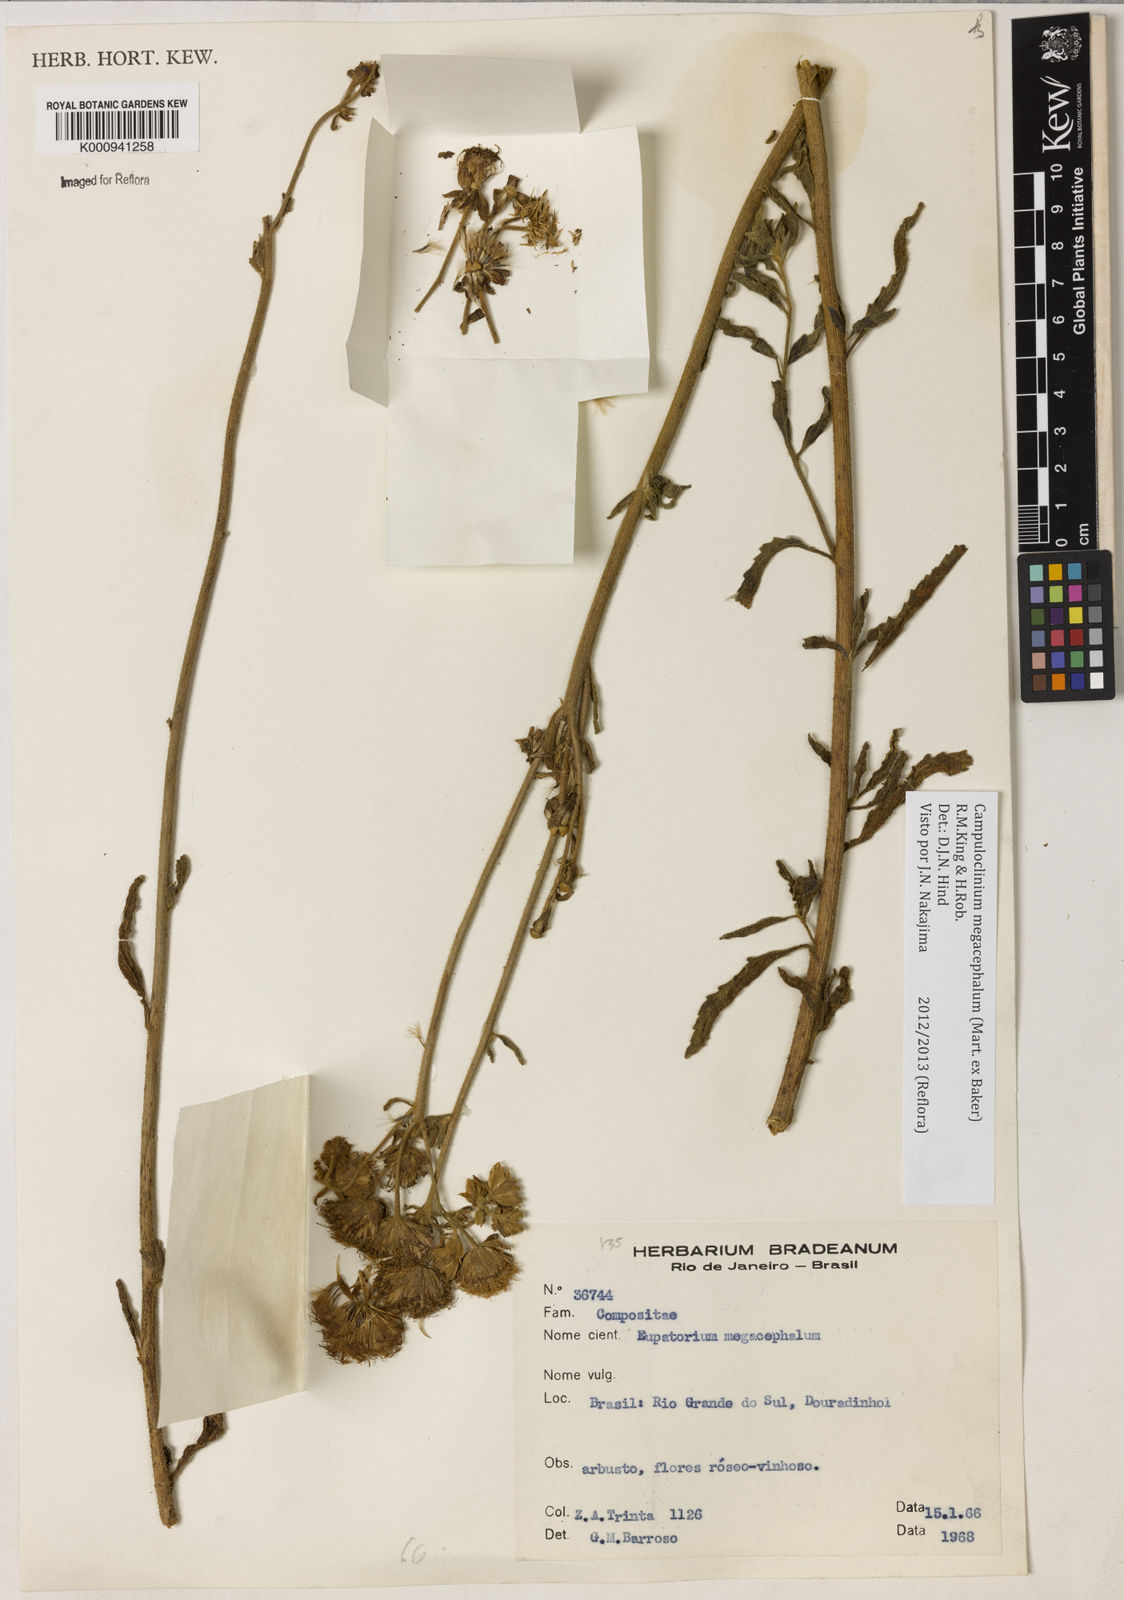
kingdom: Plantae
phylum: Tracheophyta
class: Magnoliopsida
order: Asterales
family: Asteraceae
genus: Campuloclinium
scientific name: Campuloclinium megacephalum
